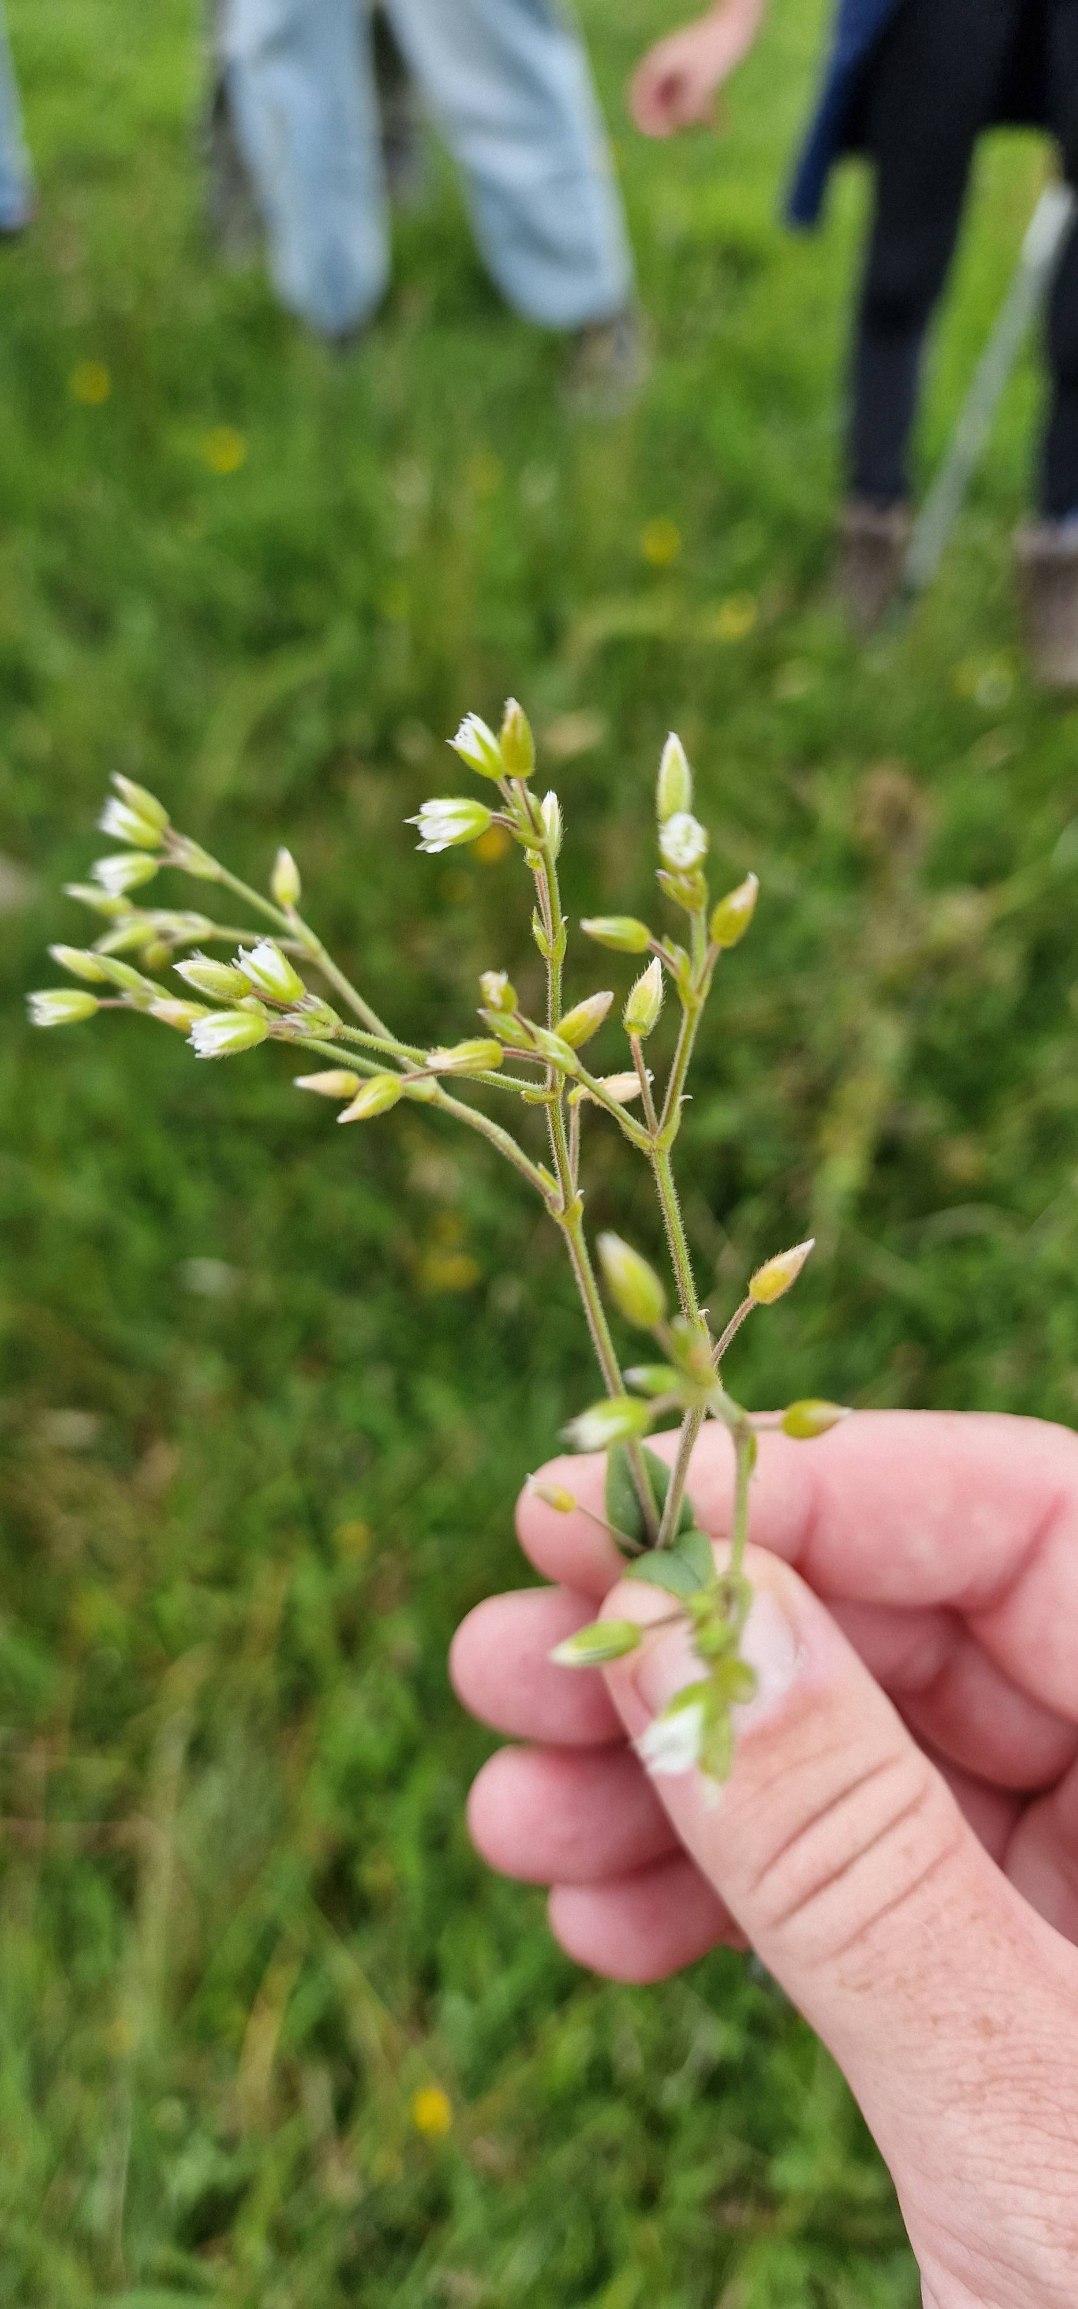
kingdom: Plantae
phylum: Tracheophyta
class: Magnoliopsida
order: Caryophyllales
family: Caryophyllaceae
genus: Cerastium
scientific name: Cerastium fontanum
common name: Almindelig hønsetarm
